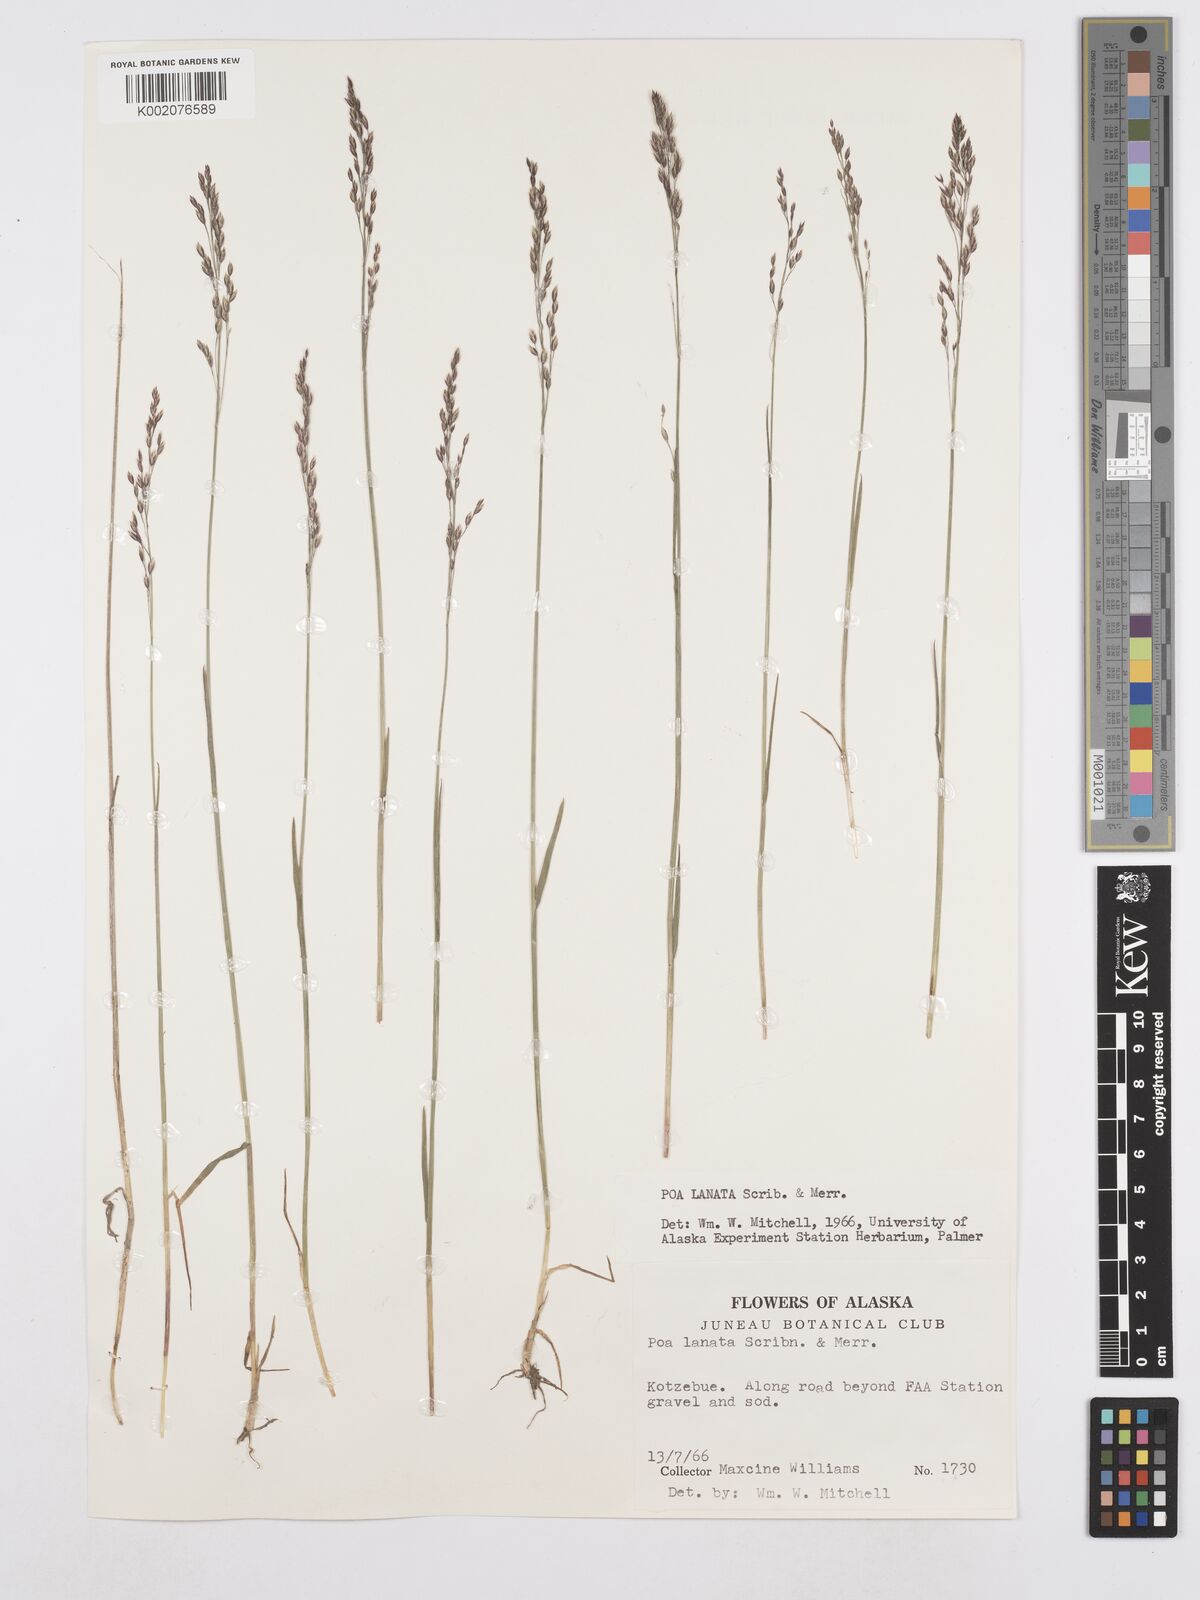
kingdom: Plantae
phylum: Tracheophyta
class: Liliopsida
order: Poales
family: Poaceae
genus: Poa
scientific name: Poa lanata
